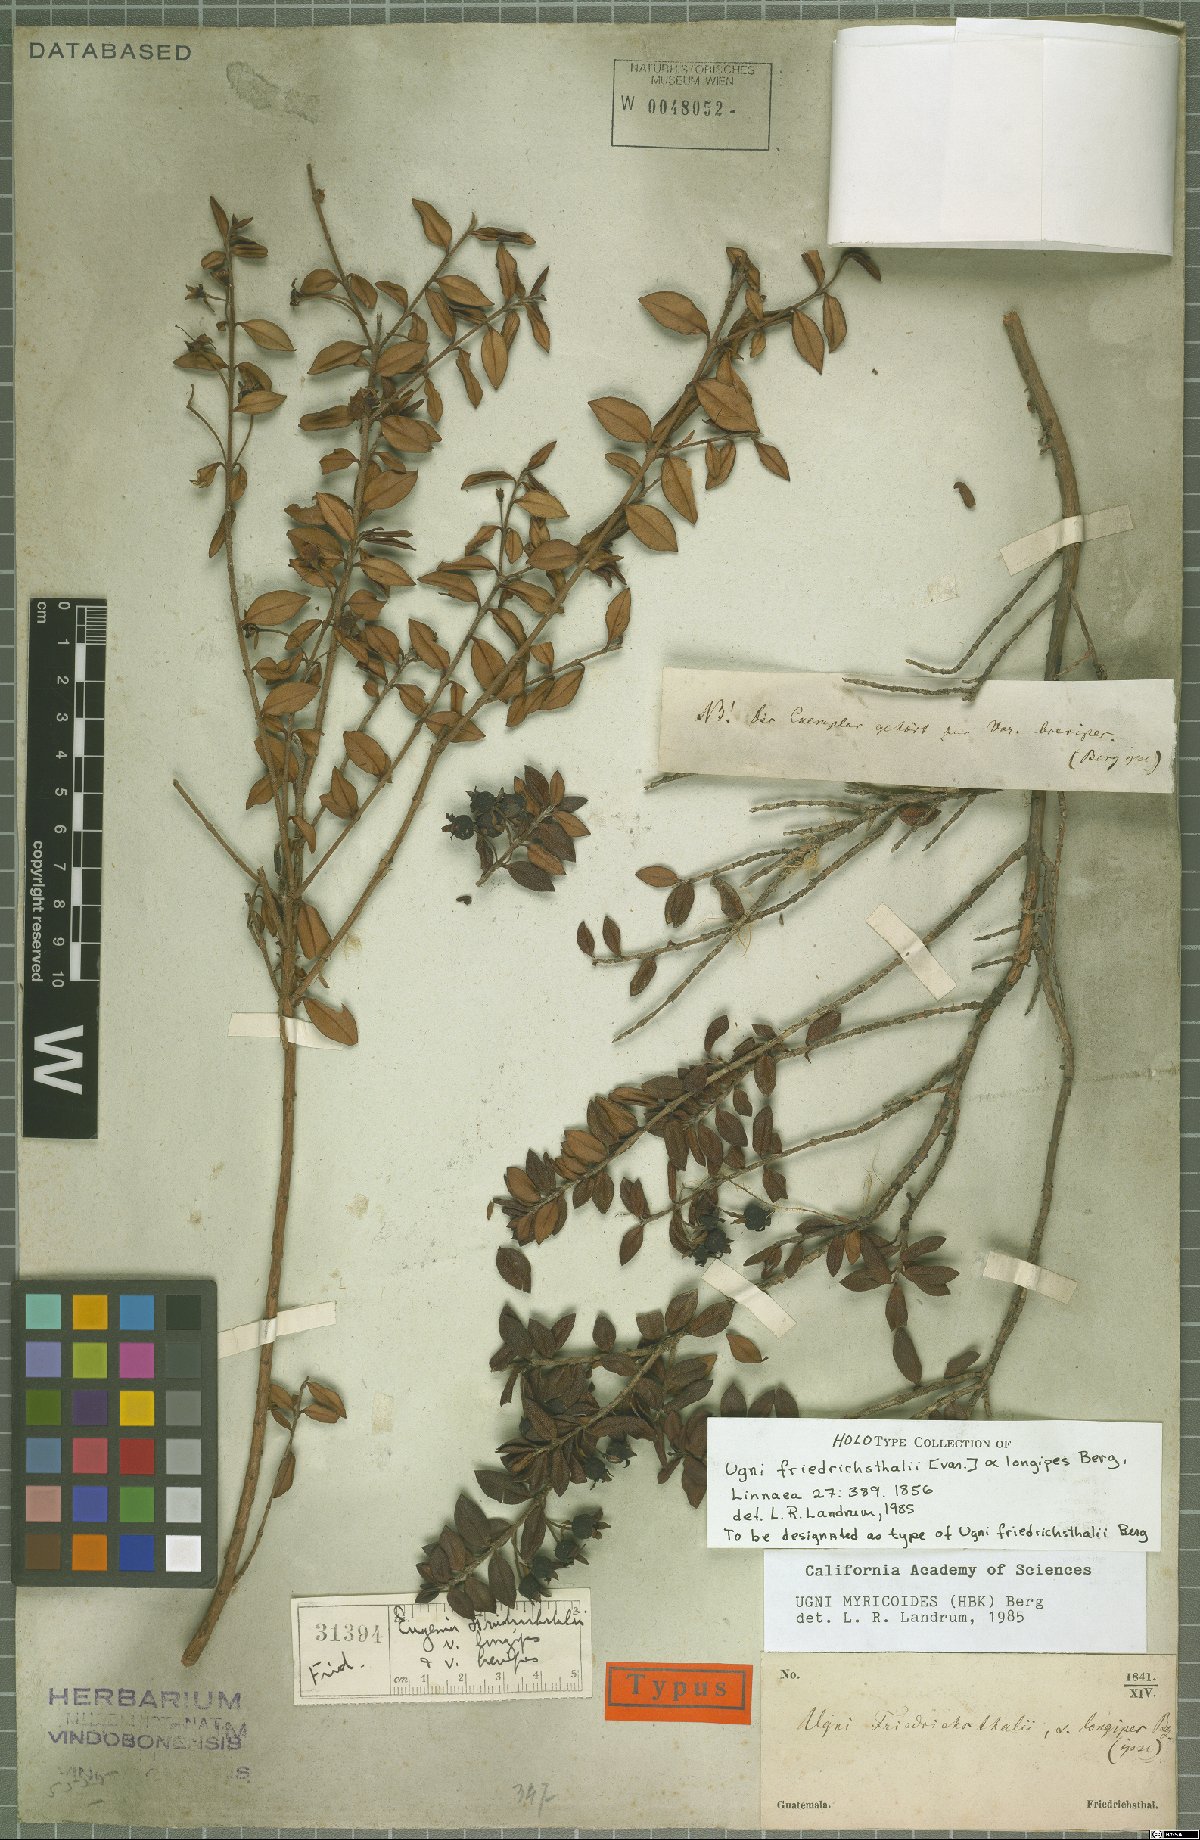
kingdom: Plantae
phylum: Tracheophyta
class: Magnoliopsida
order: Myrtales
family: Myrtaceae
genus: Ugni
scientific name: Ugni myricoides
